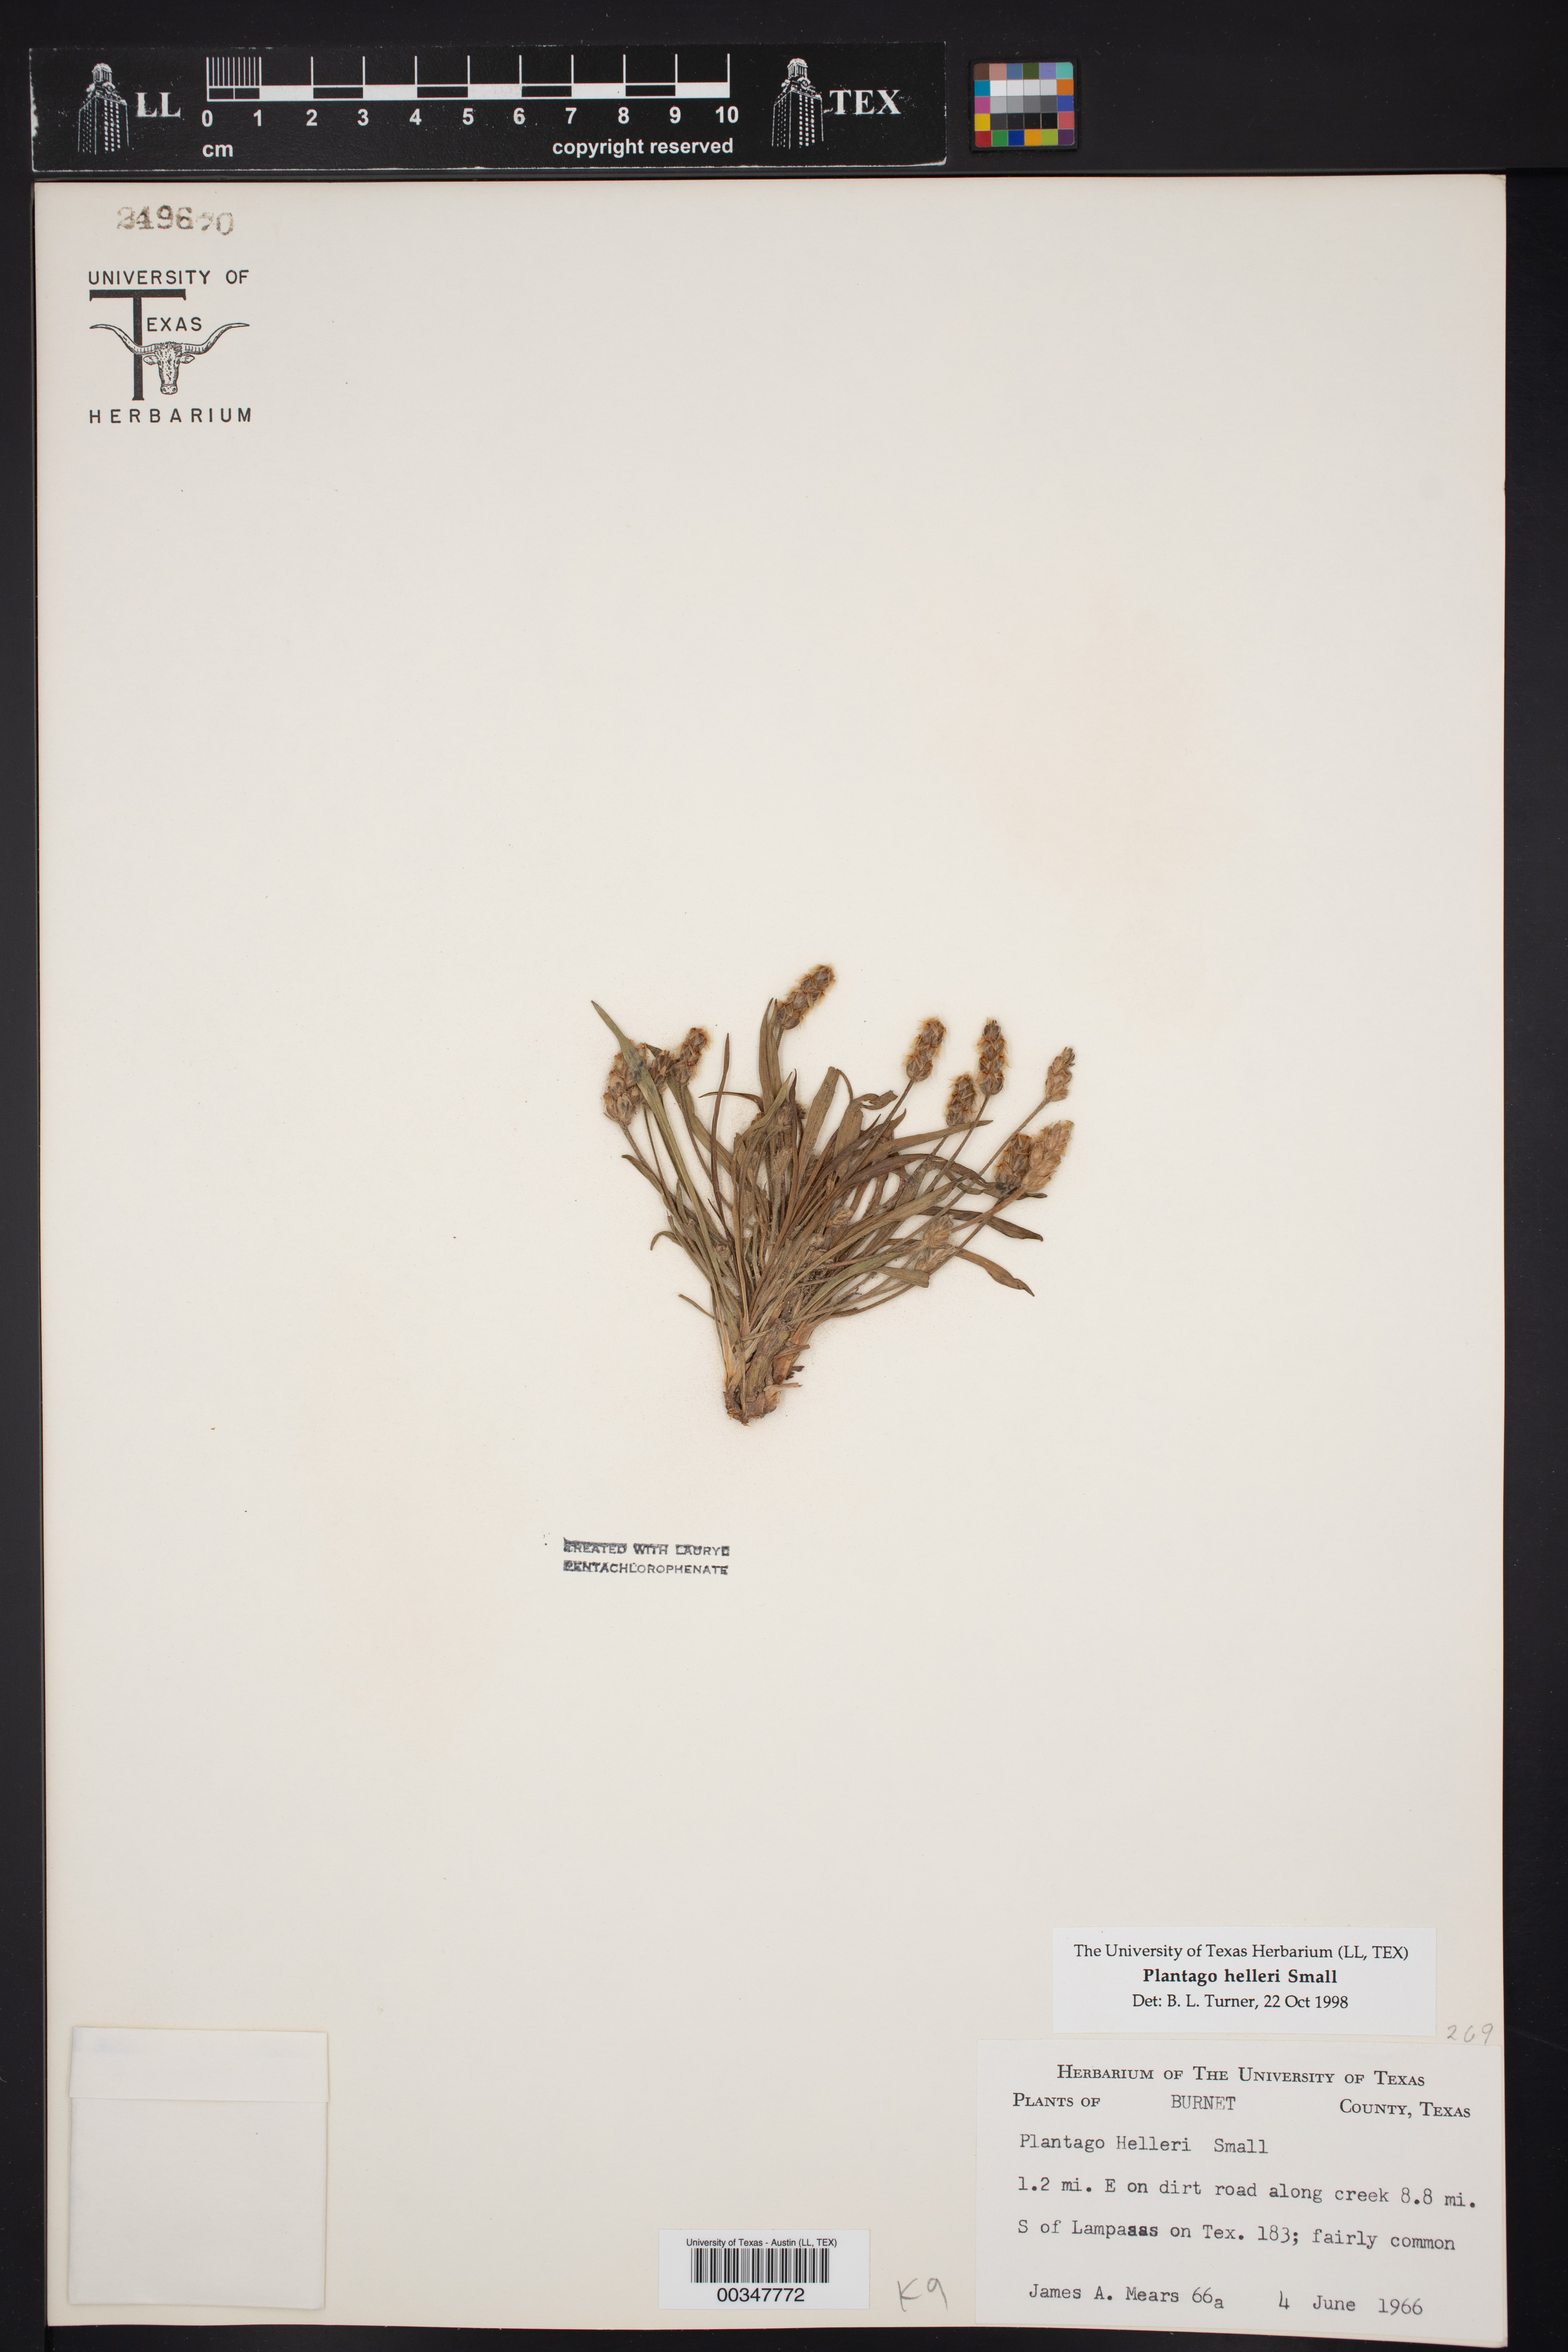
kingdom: Plantae
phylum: Tracheophyta
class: Magnoliopsida
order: Lamiales
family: Plantaginaceae
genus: Plantago
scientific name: Plantago helleri
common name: Heller's plantain
